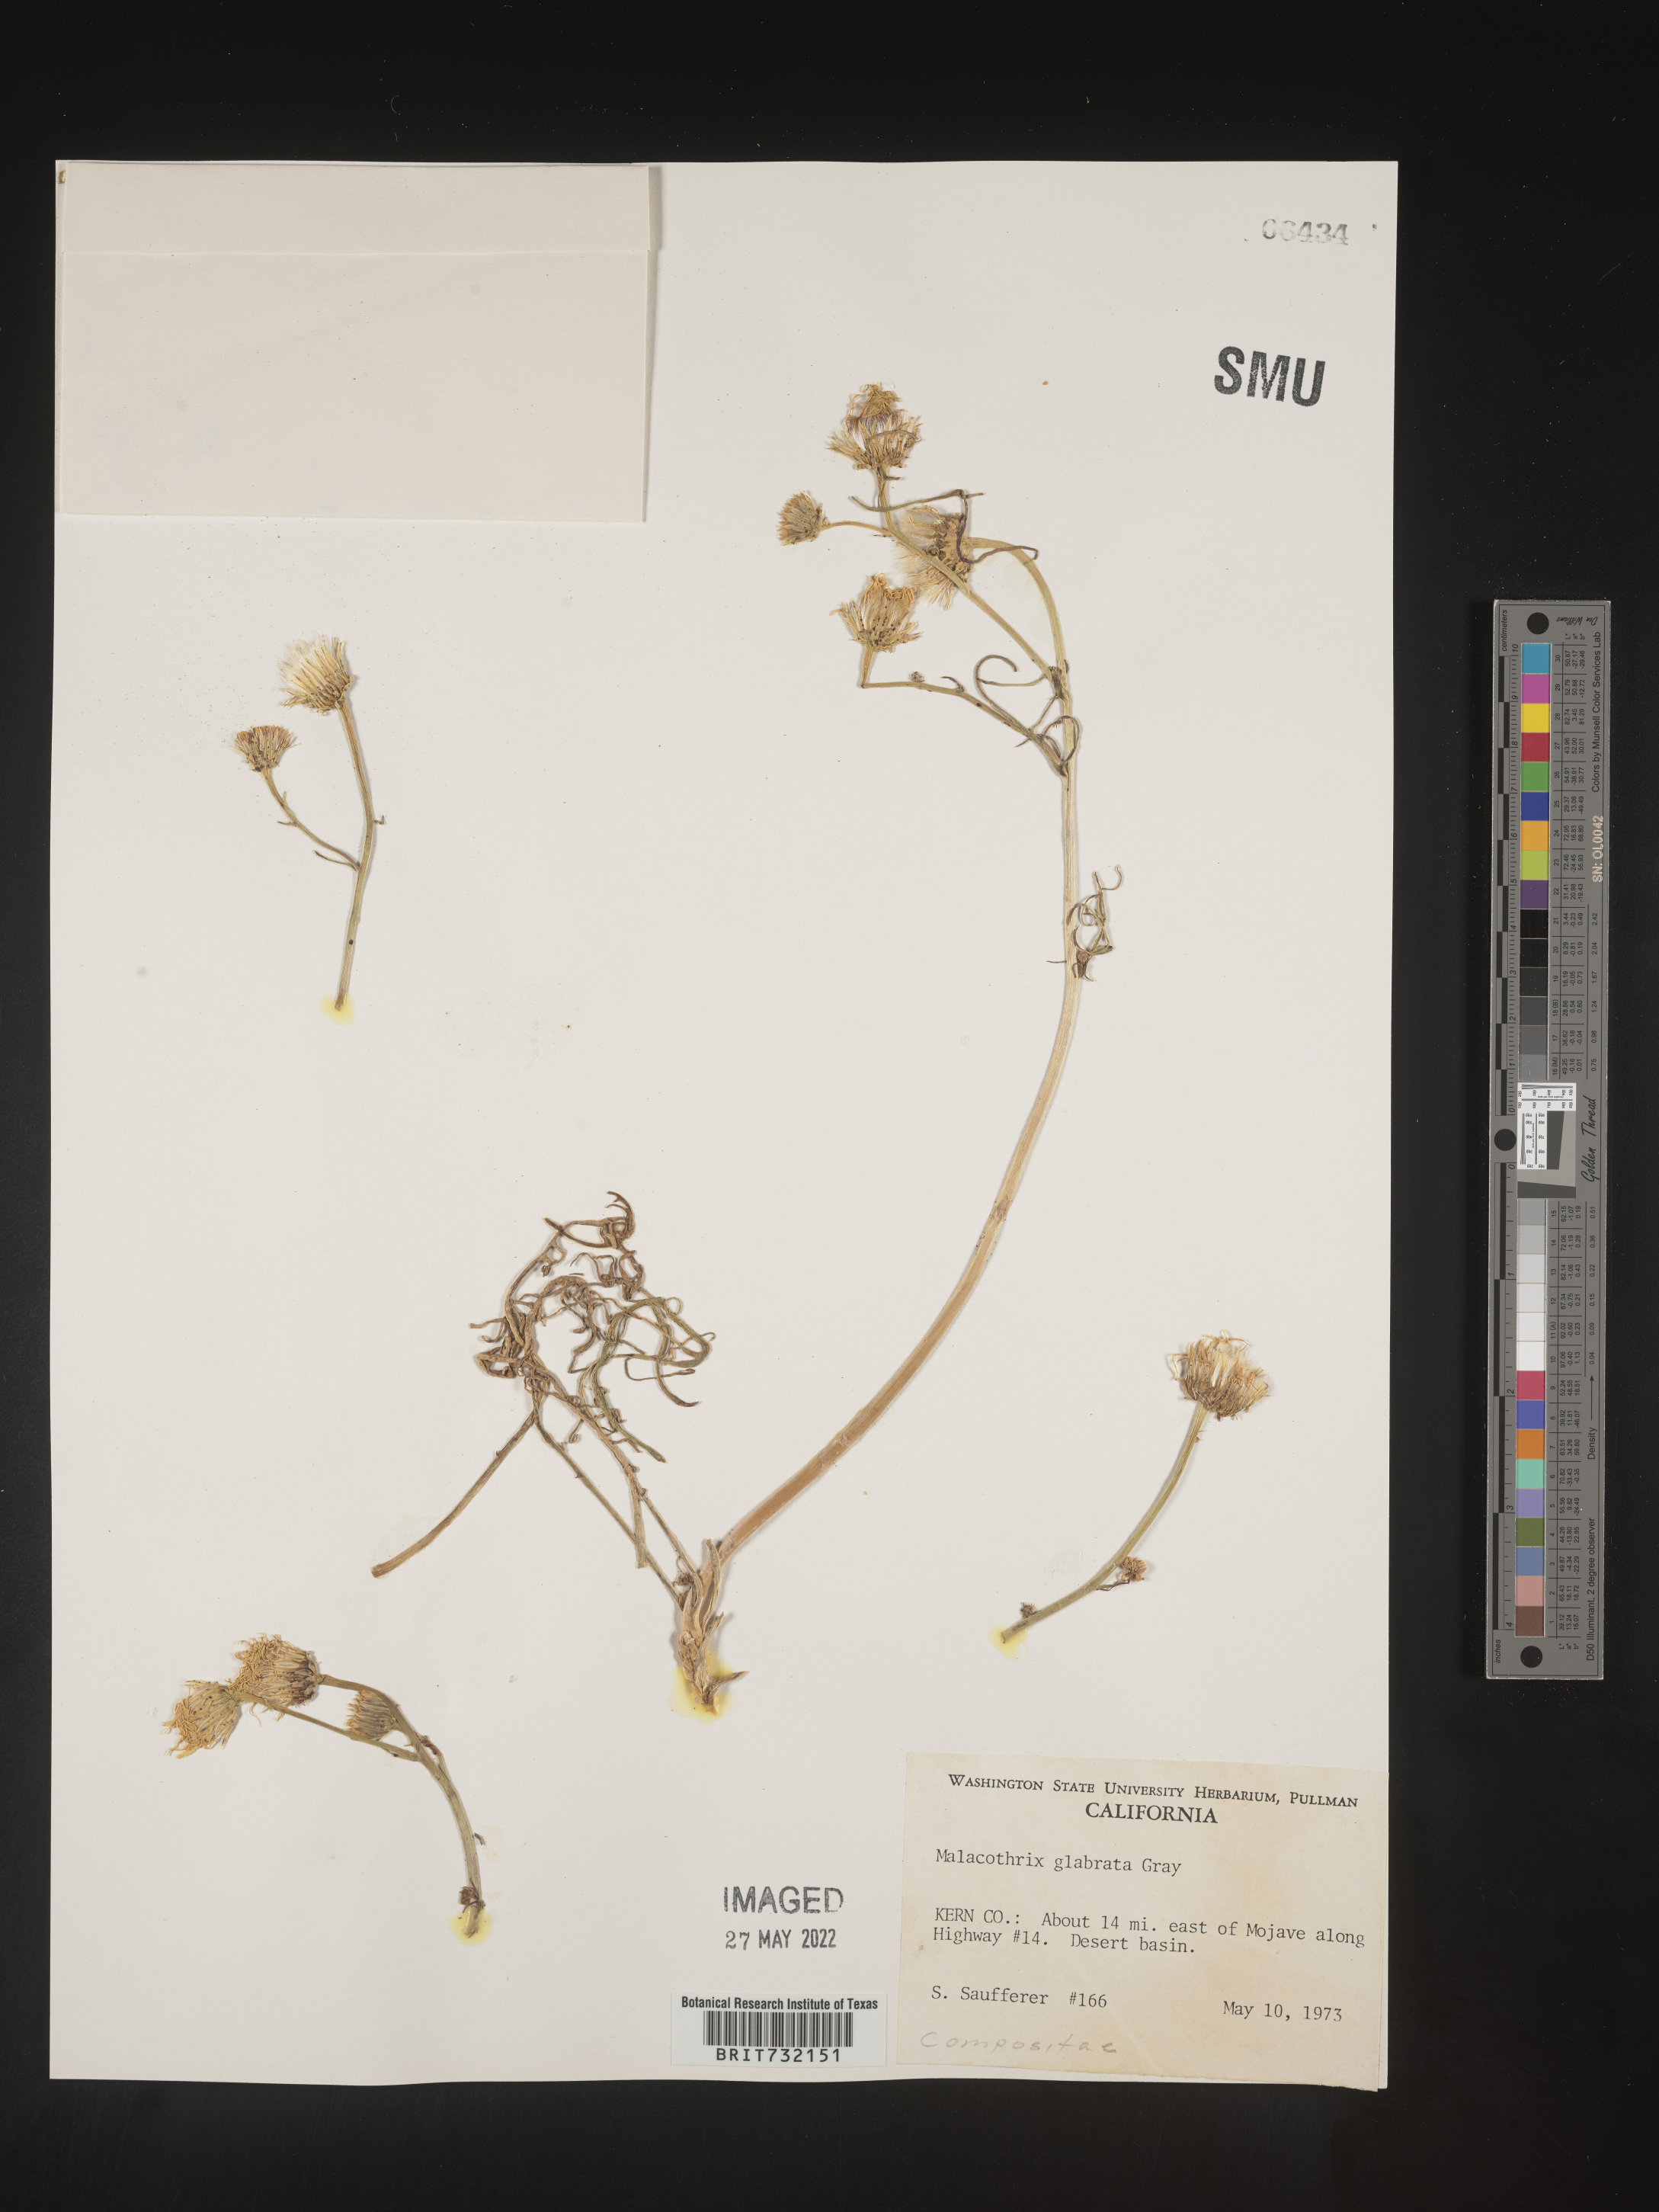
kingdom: Plantae
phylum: Tracheophyta
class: Magnoliopsida
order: Asterales
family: Asteraceae
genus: Malacothrix
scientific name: Malacothrix glabrata
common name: Smooth desert-dandelion
